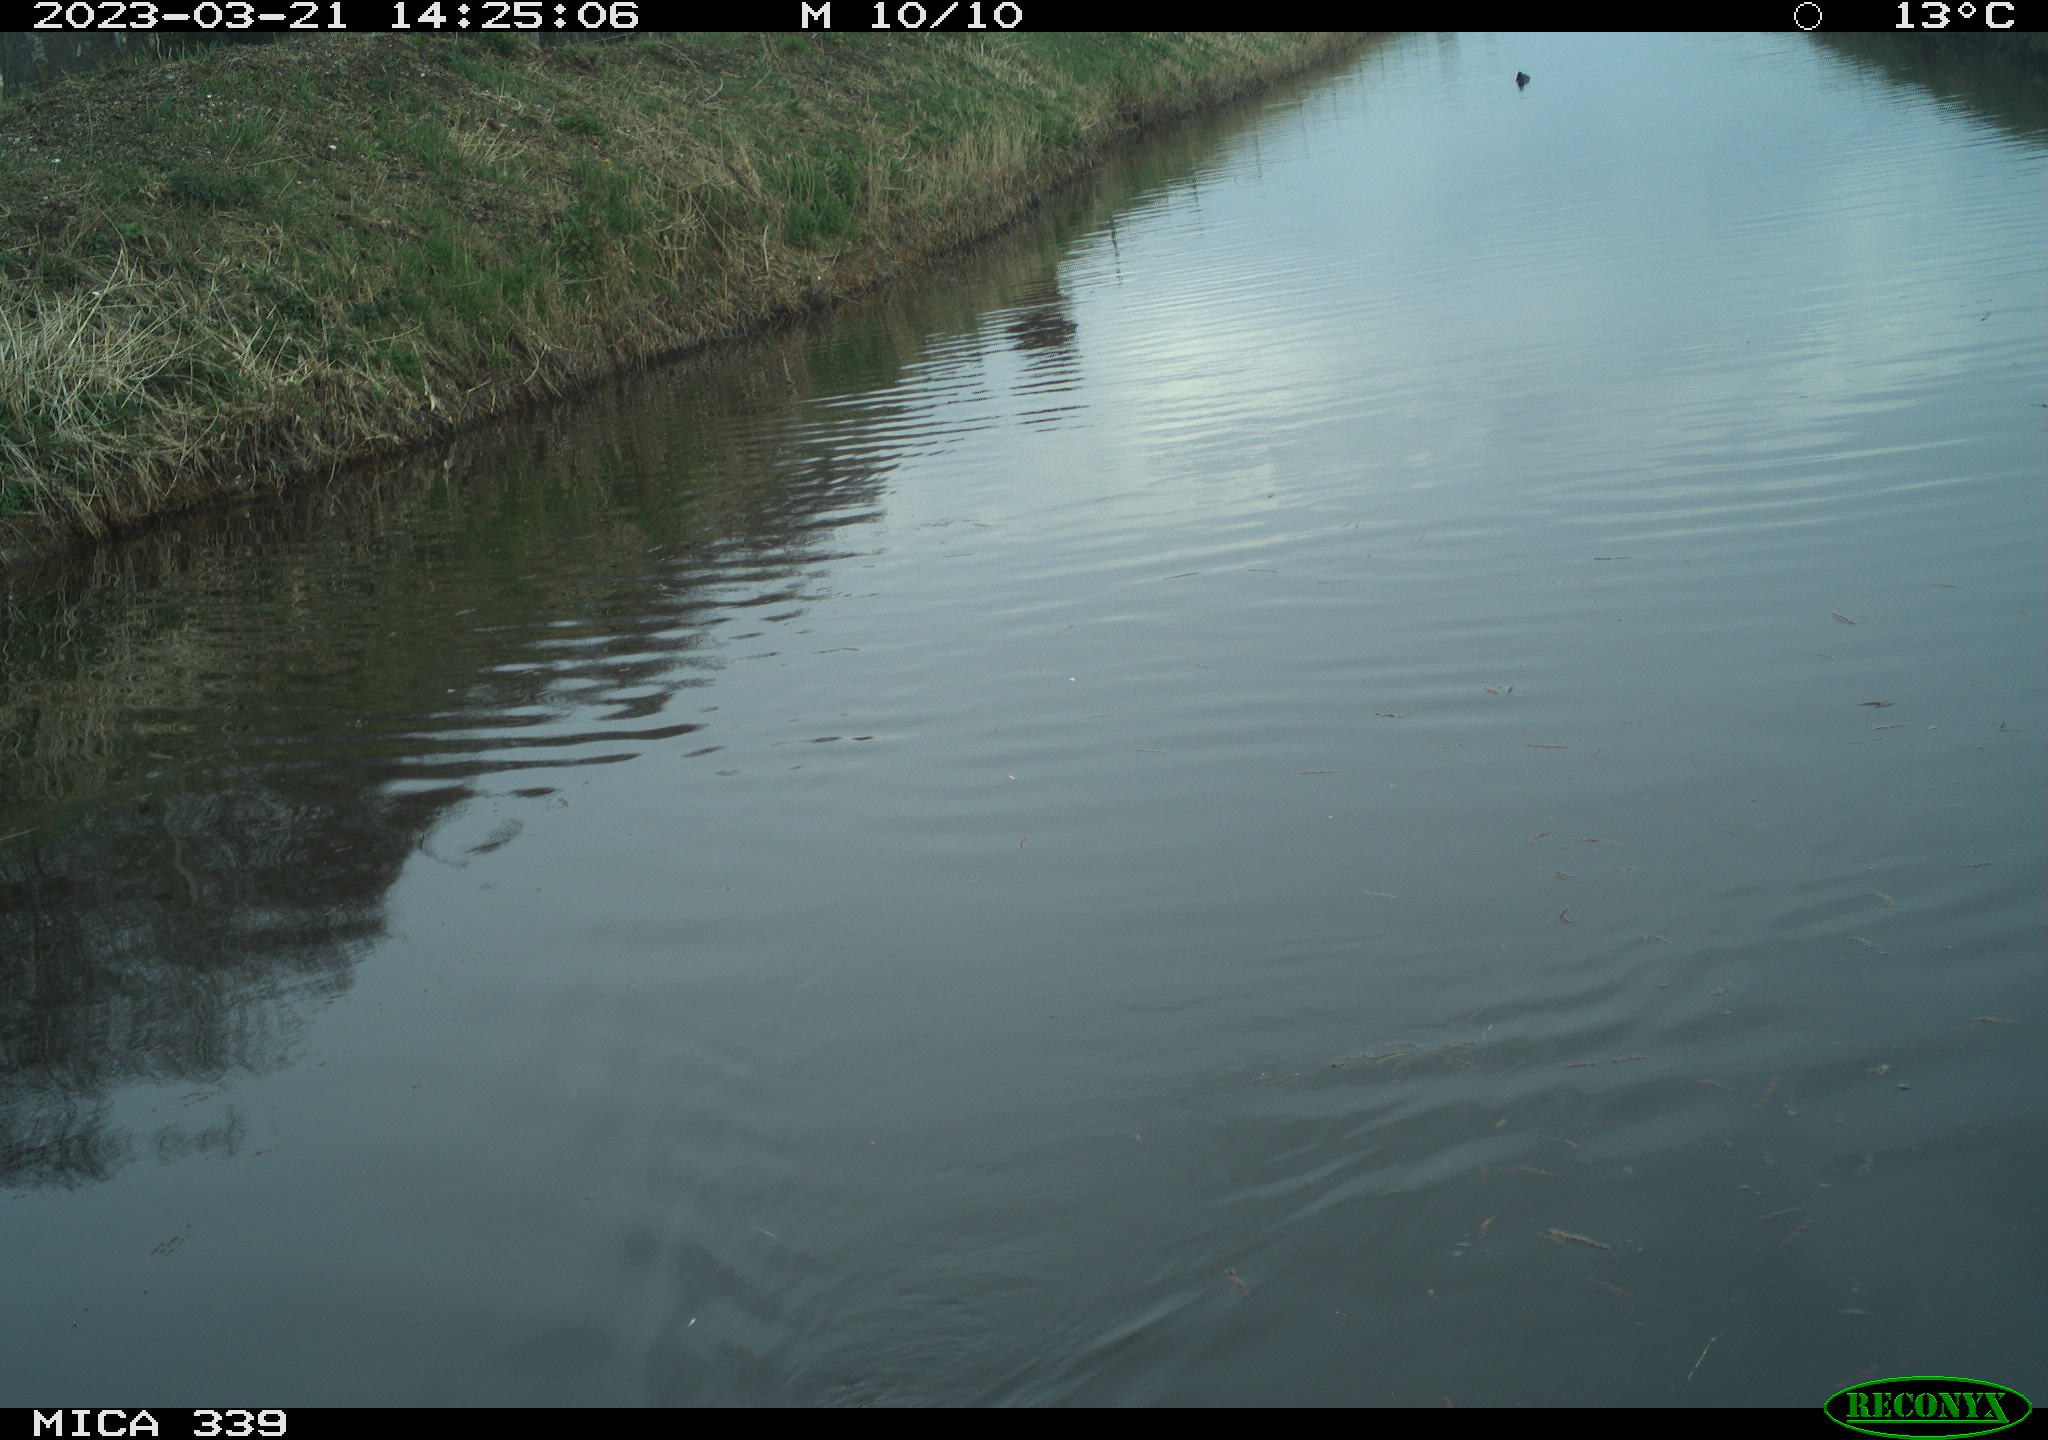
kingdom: Animalia
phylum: Chordata
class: Aves
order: Gruiformes
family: Rallidae
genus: Fulica
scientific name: Fulica atra
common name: Eurasian coot
